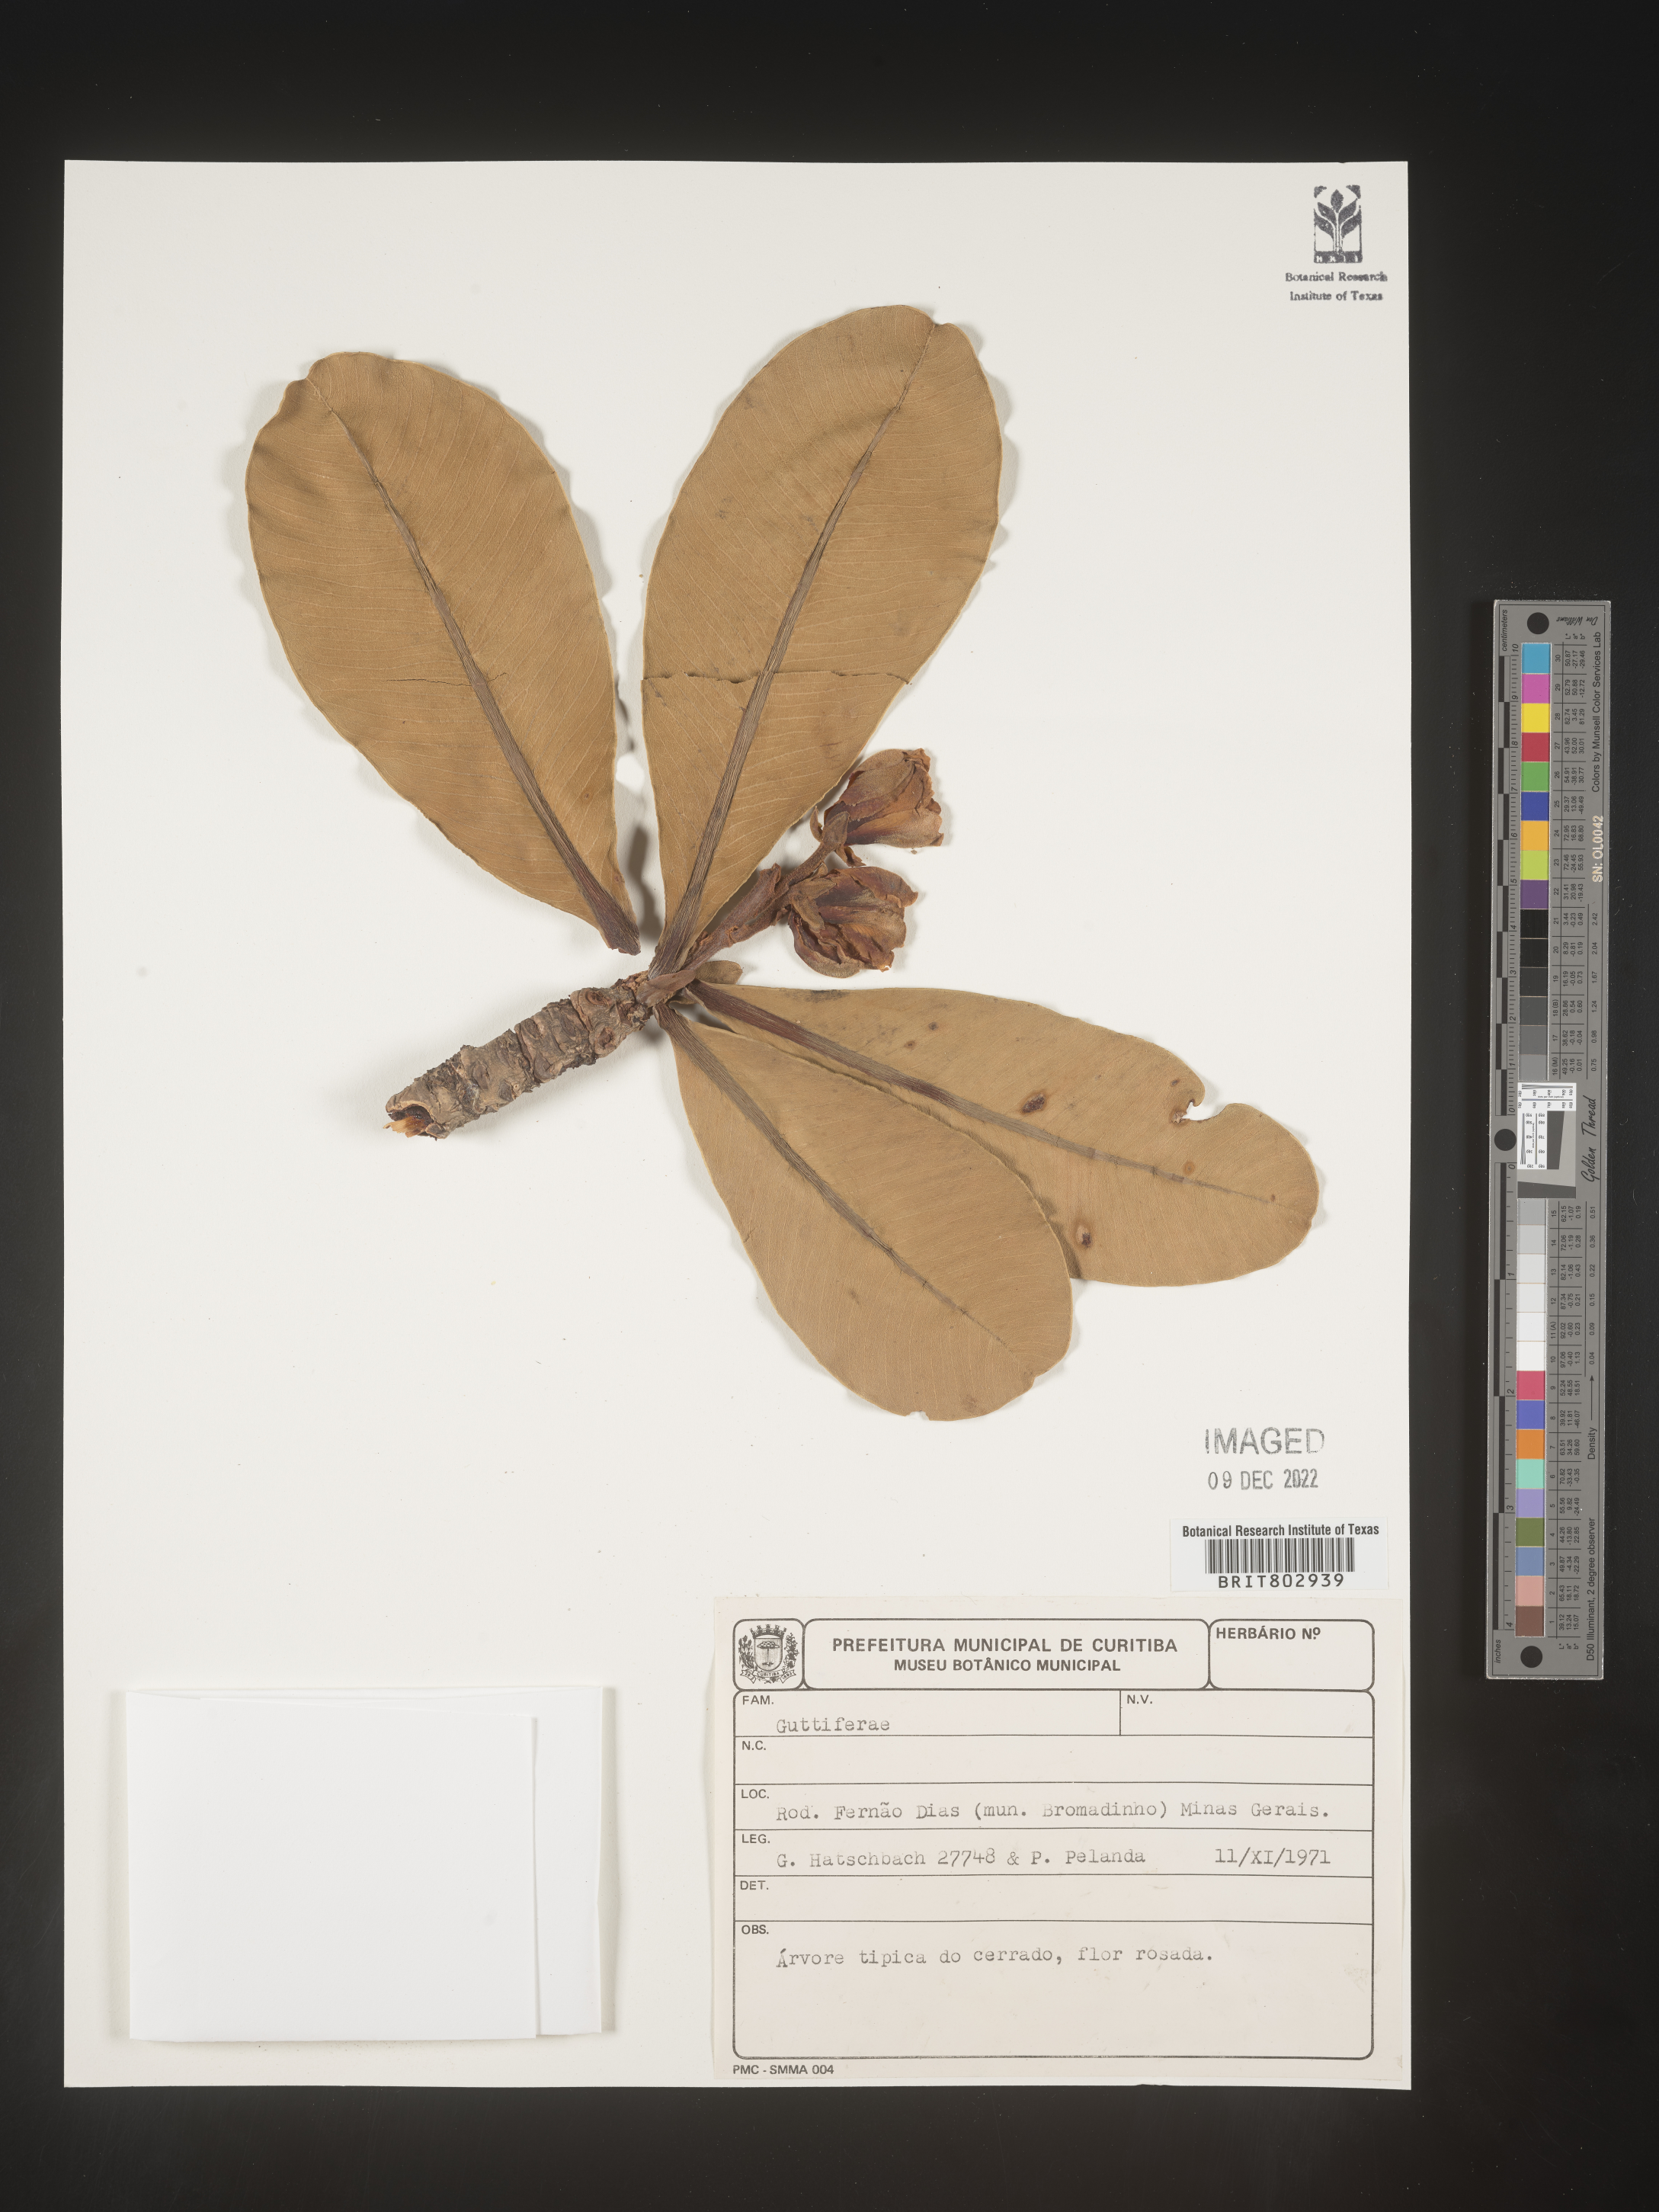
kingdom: Plantae
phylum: Tracheophyta
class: Magnoliopsida
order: Malpighiales
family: Calophyllaceae
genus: Kielmeyera
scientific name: Kielmeyera
